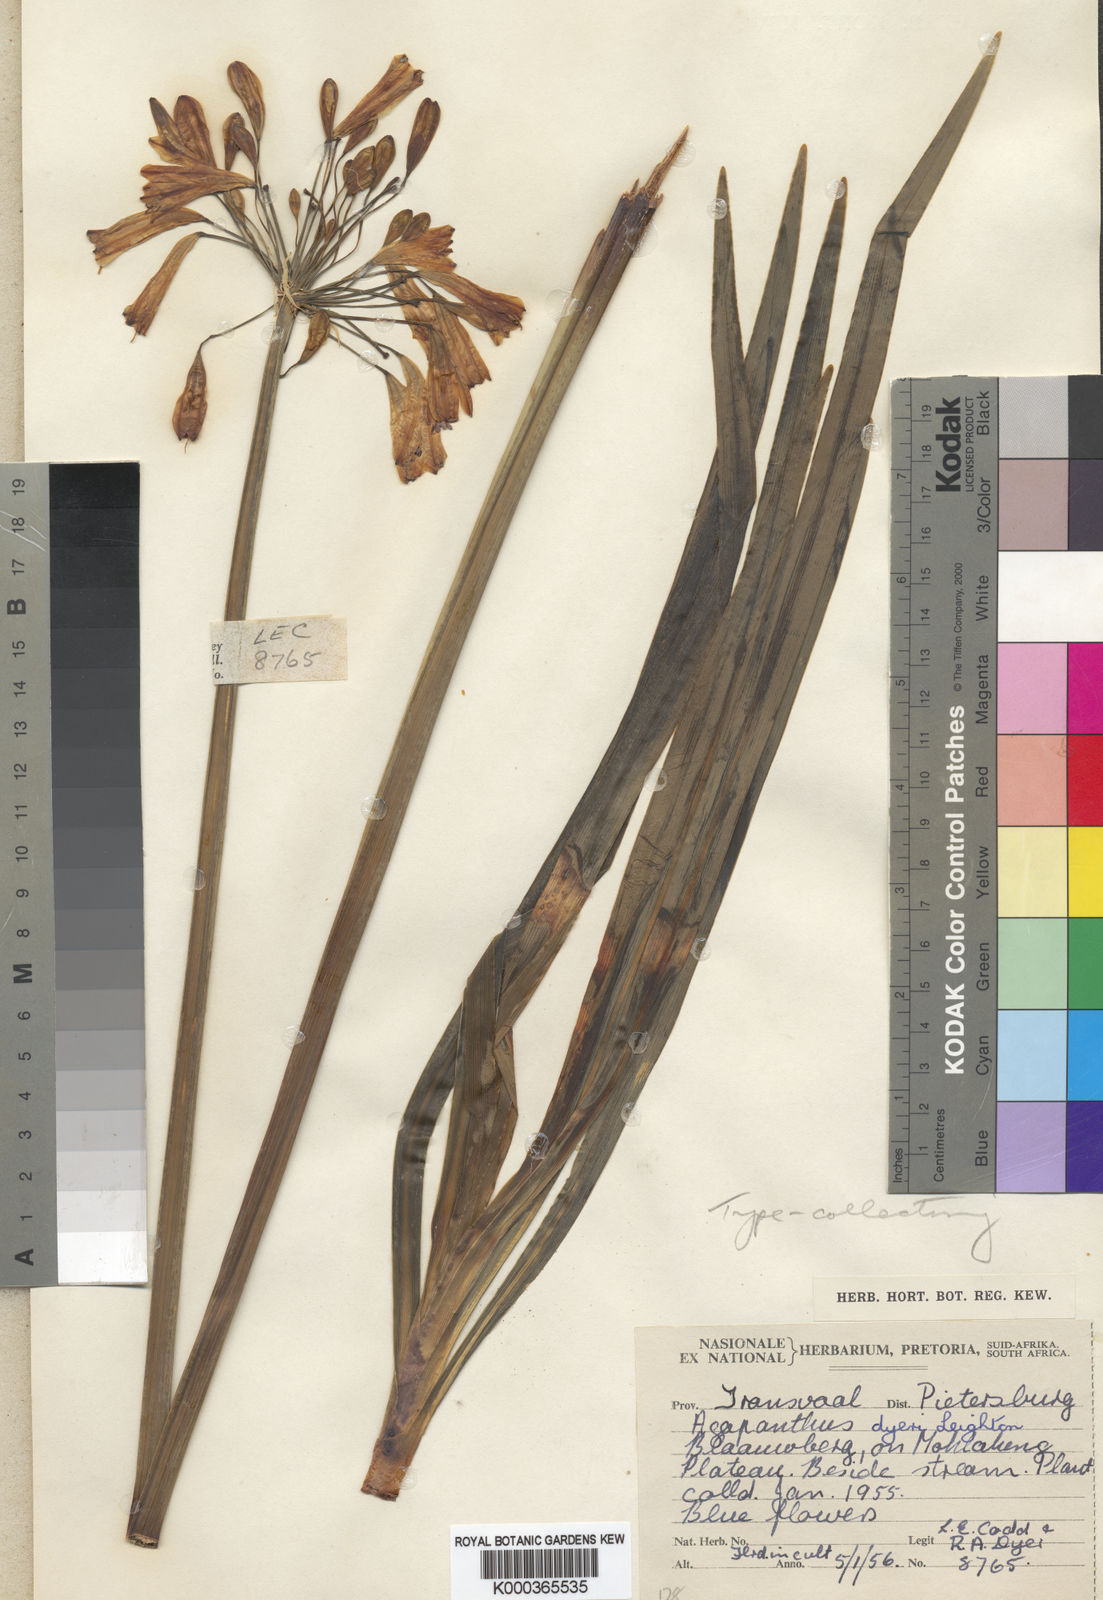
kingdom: Plantae
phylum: Tracheophyta
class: Liliopsida
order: Asparagales
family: Amaryllidaceae
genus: Agapanthus
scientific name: Agapanthus inapertus
